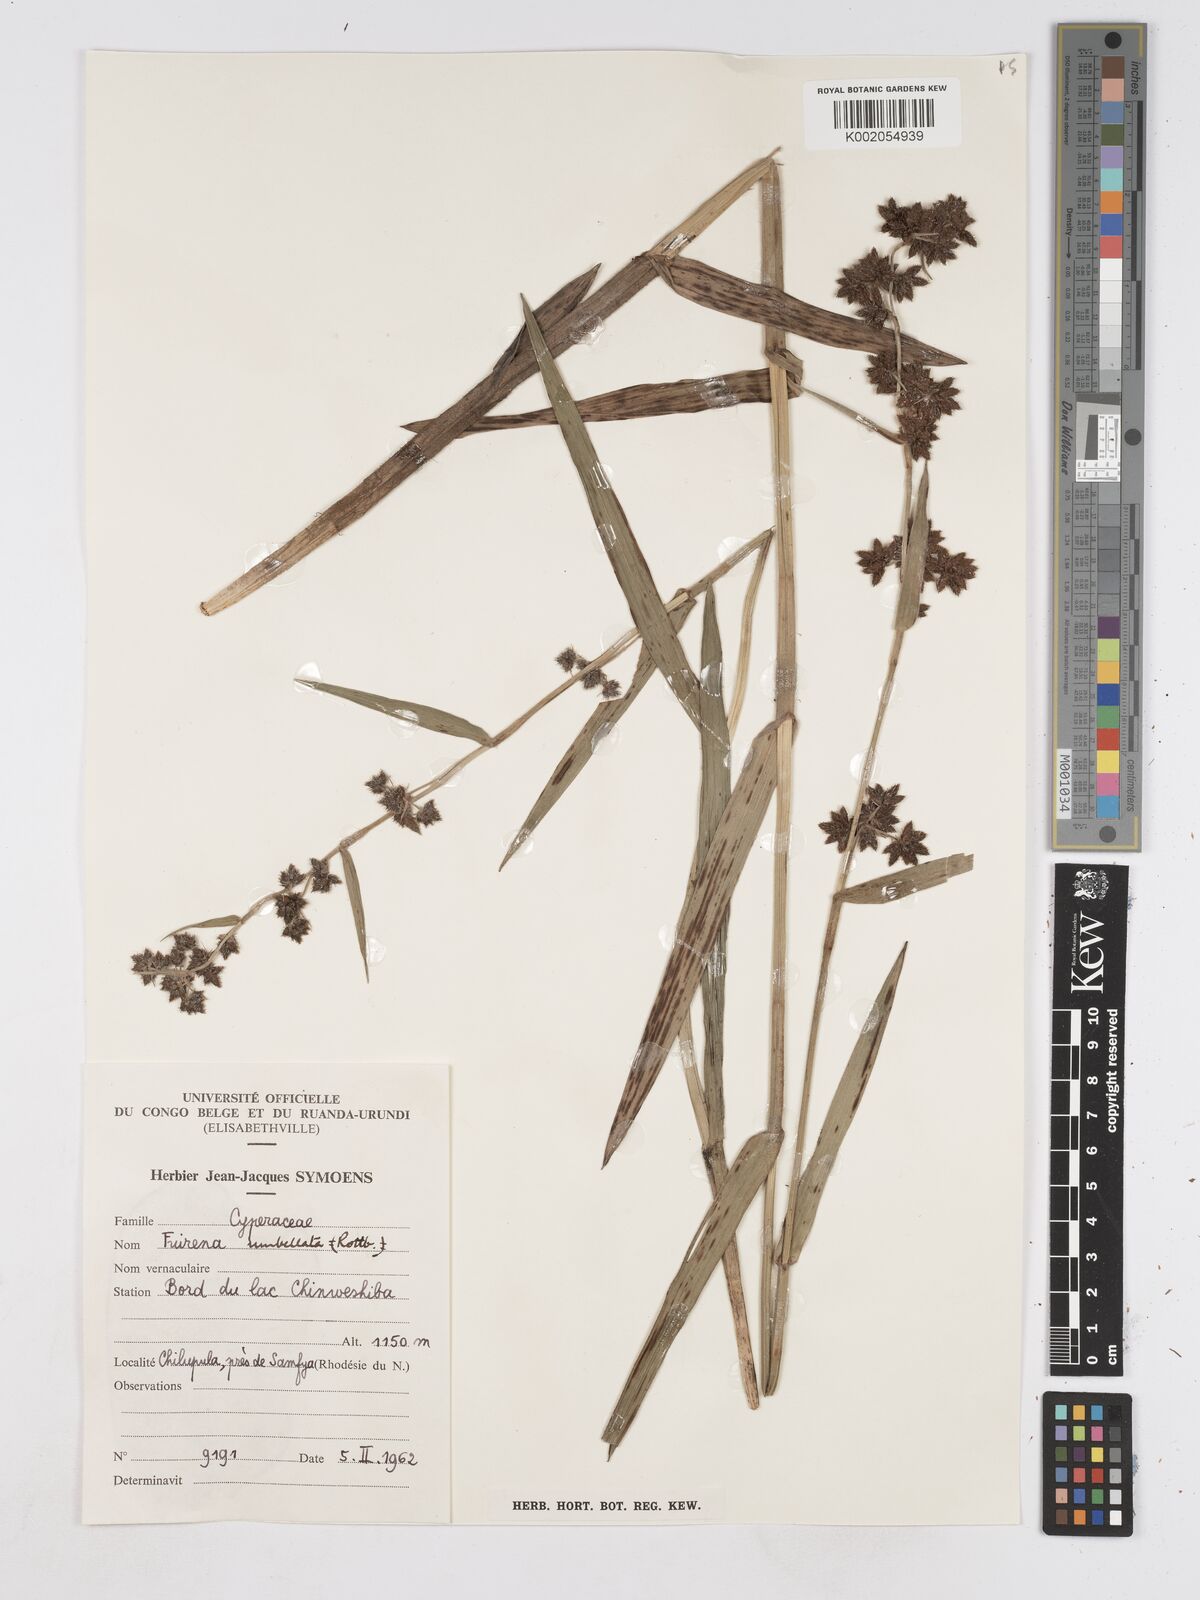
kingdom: Plantae
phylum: Tracheophyta
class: Liliopsida
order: Poales
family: Cyperaceae
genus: Fuirena
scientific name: Fuirena umbellata
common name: Yefen
